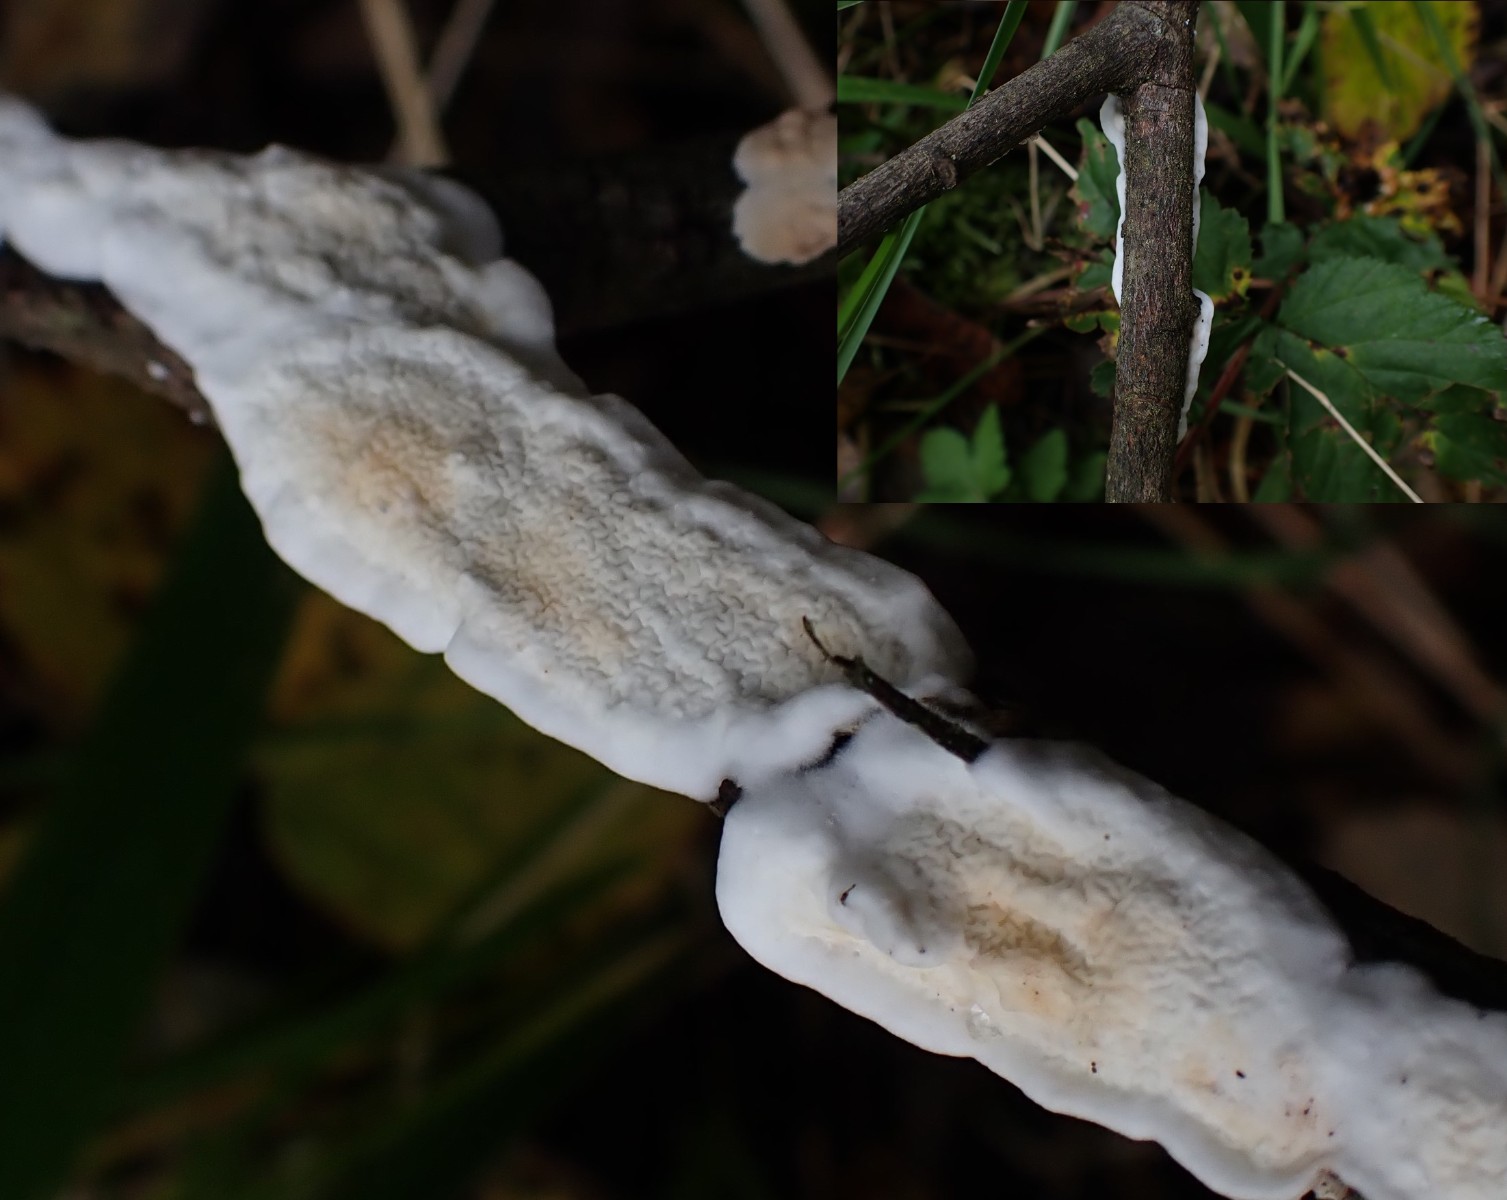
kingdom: Fungi
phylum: Basidiomycota
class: Agaricomycetes
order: Polyporales
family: Irpicaceae
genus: Byssomerulius
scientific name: Byssomerulius corium
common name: læder-åresvamp
